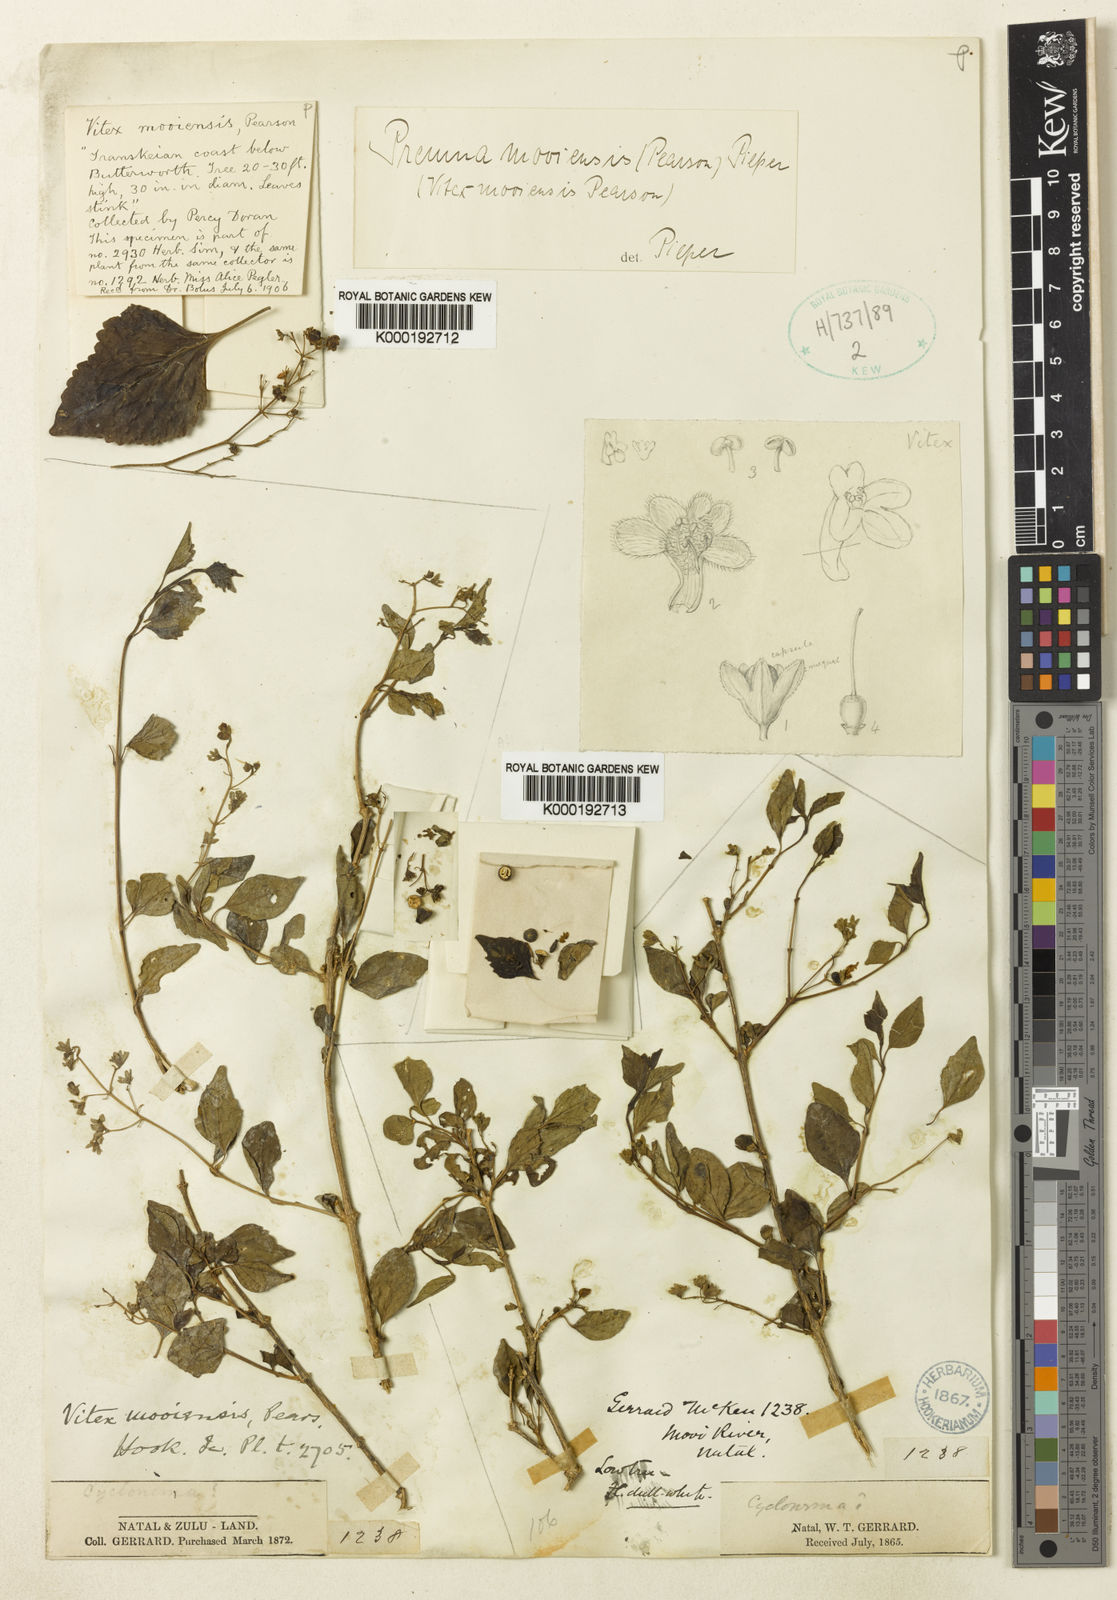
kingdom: Plantae
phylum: Tracheophyta
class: Magnoliopsida
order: Lamiales
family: Lamiaceae
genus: Vitex
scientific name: Vitex mooiensis
